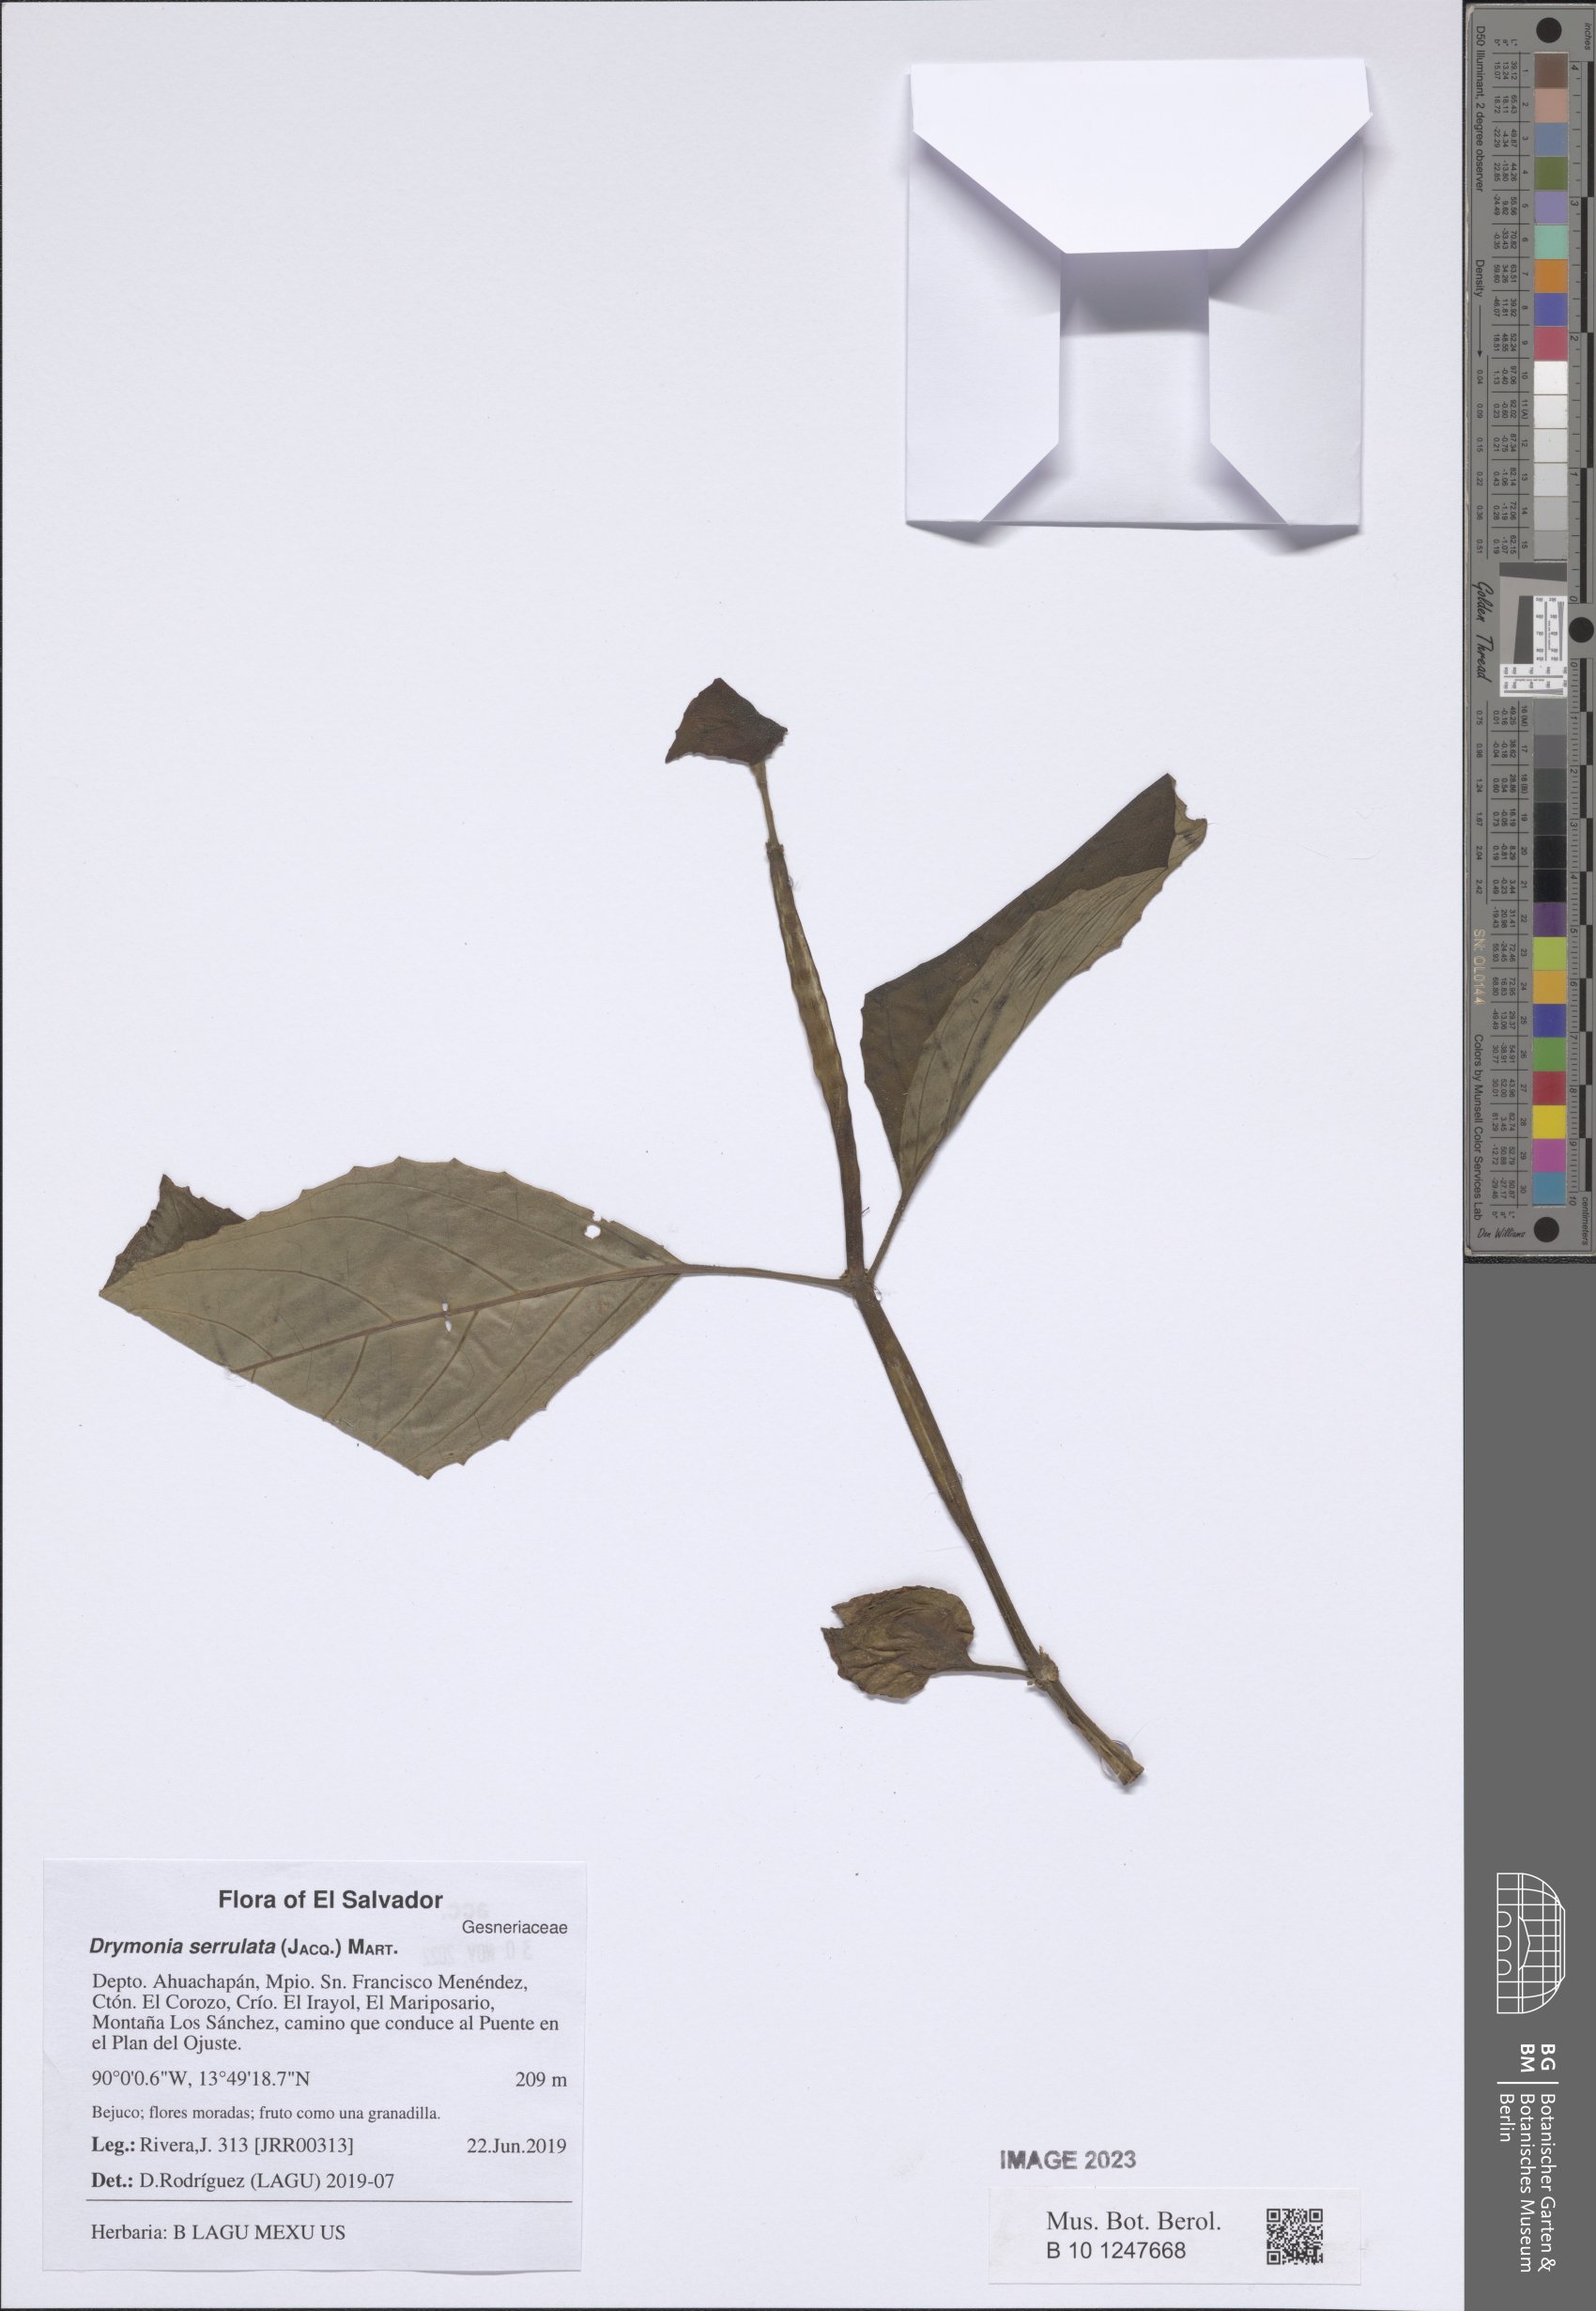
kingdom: Plantae
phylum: Tracheophyta
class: Magnoliopsida
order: Lamiales
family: Gesneriaceae
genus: Drymonia
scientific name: Drymonia serrulata
